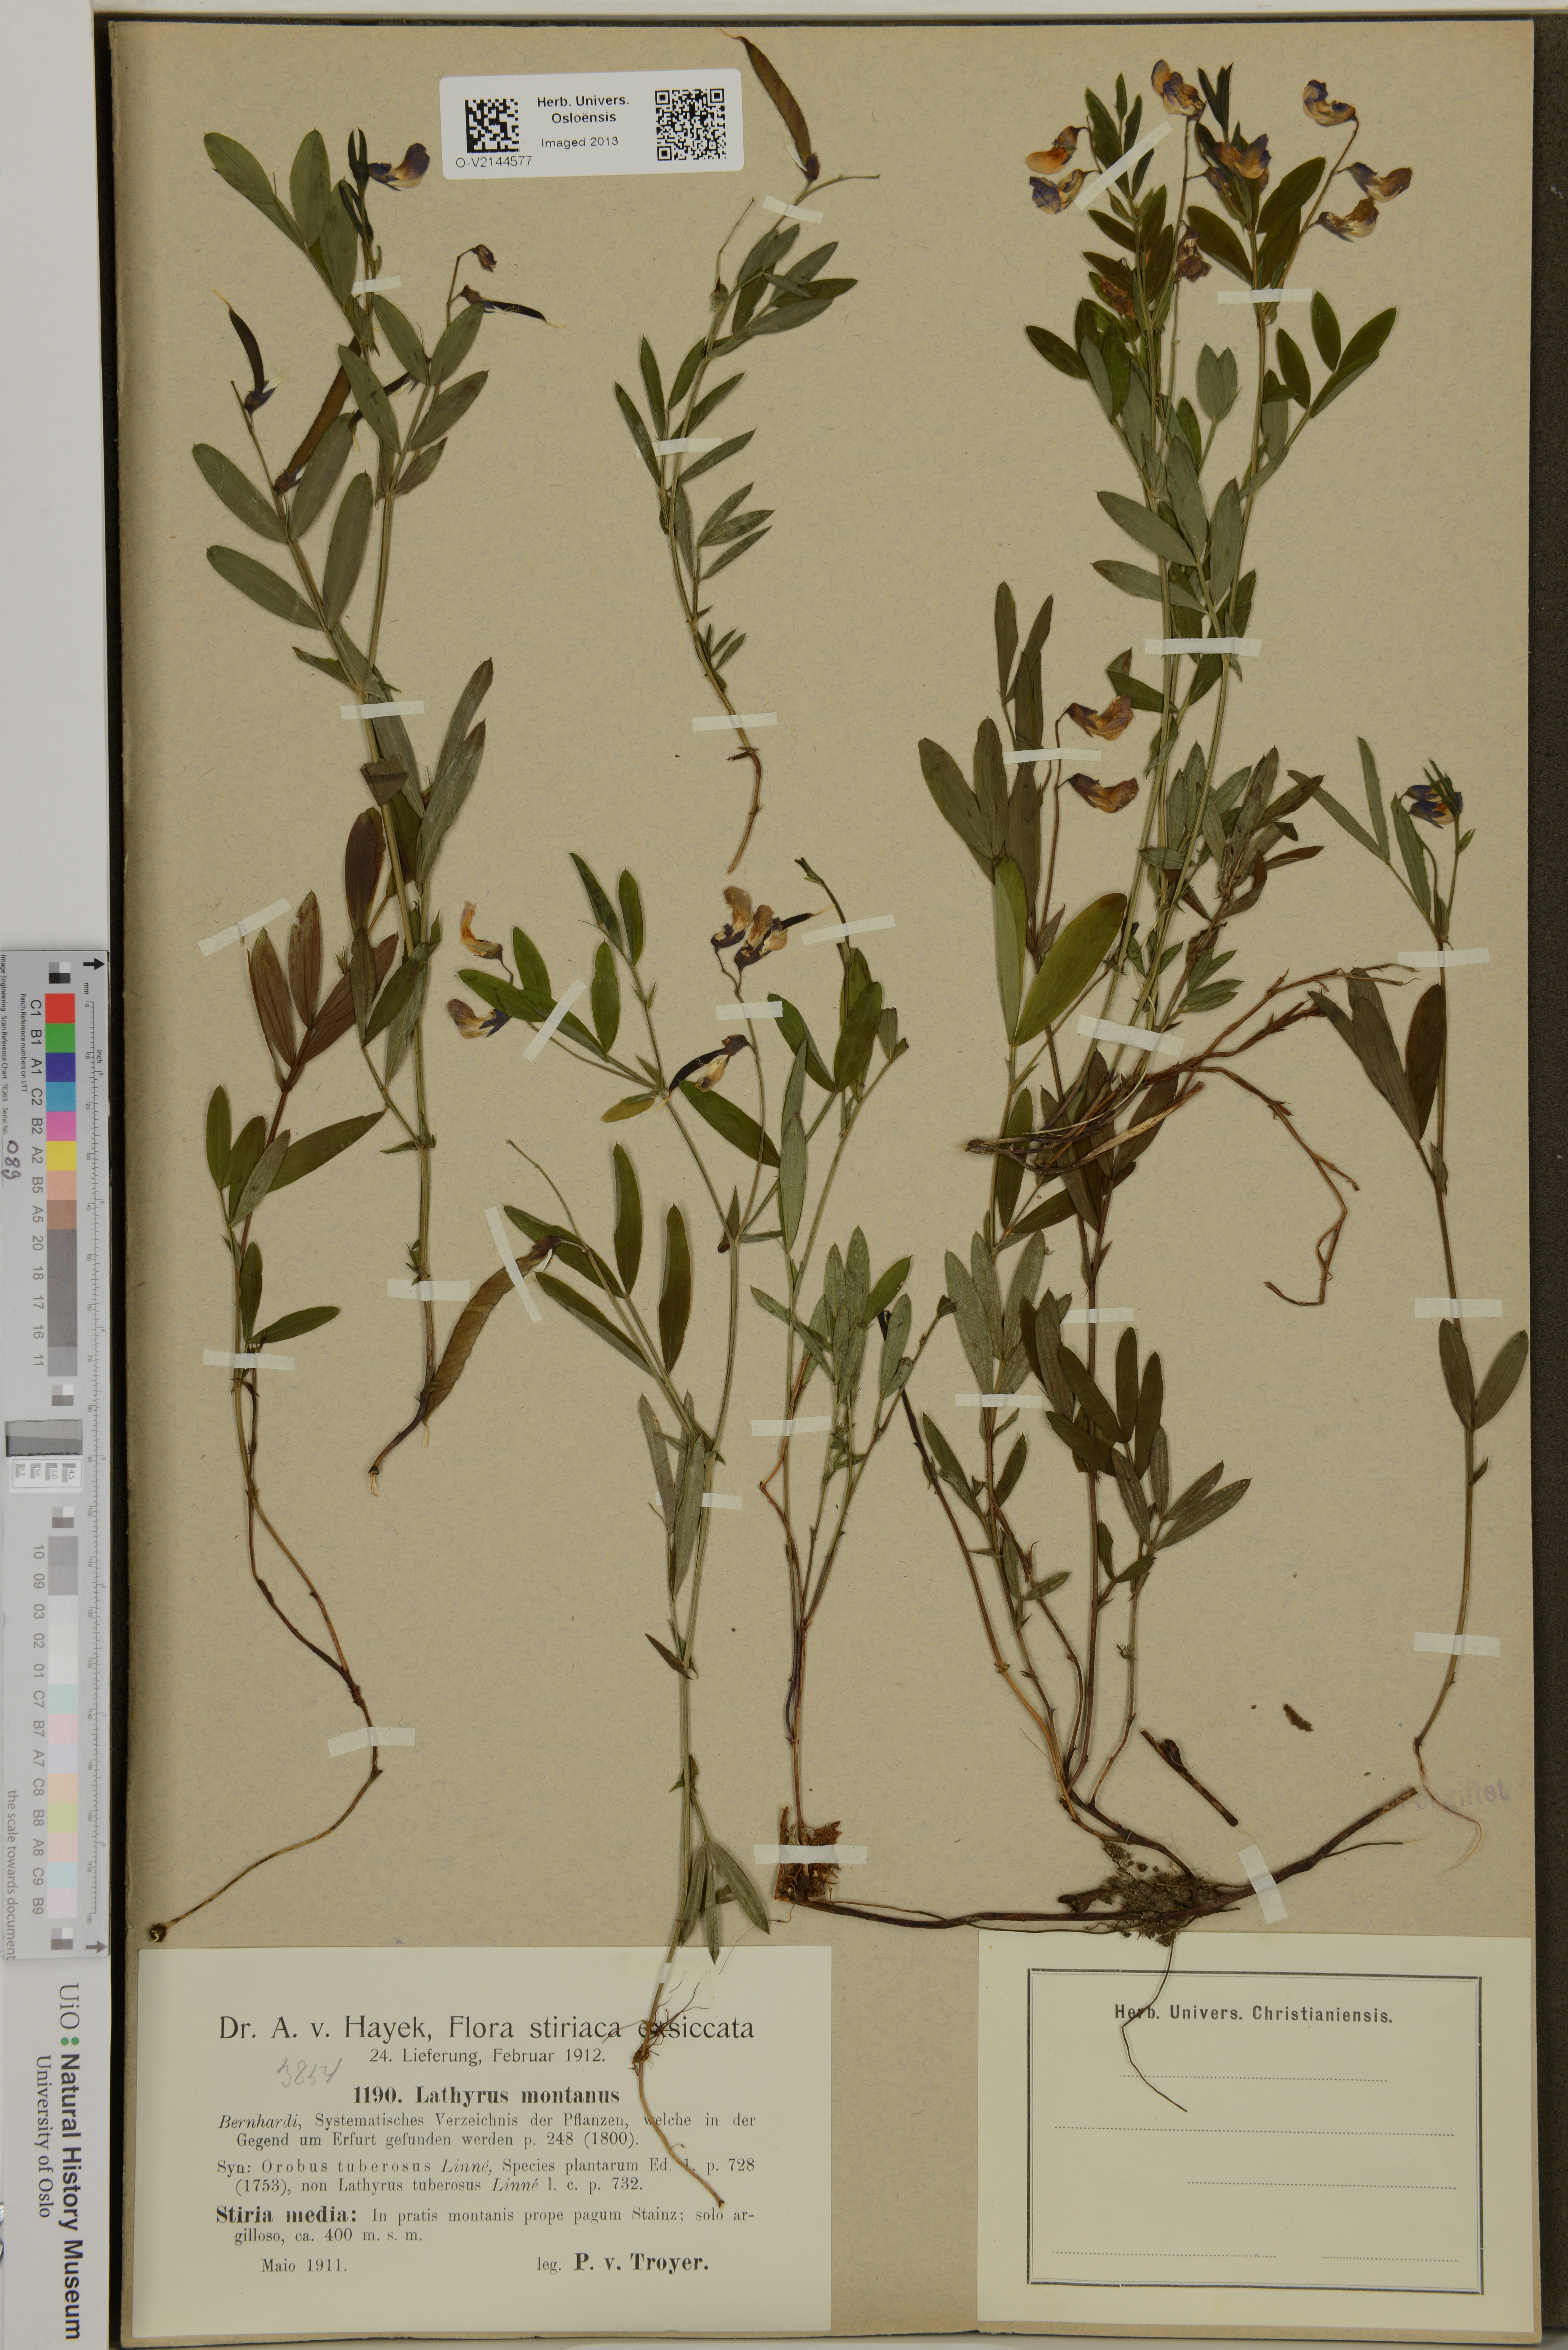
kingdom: Plantae
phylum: Tracheophyta
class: Magnoliopsida
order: Fabales
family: Fabaceae
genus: Lathyrus
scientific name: Lathyrus linifolius
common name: Bitter-vetch
